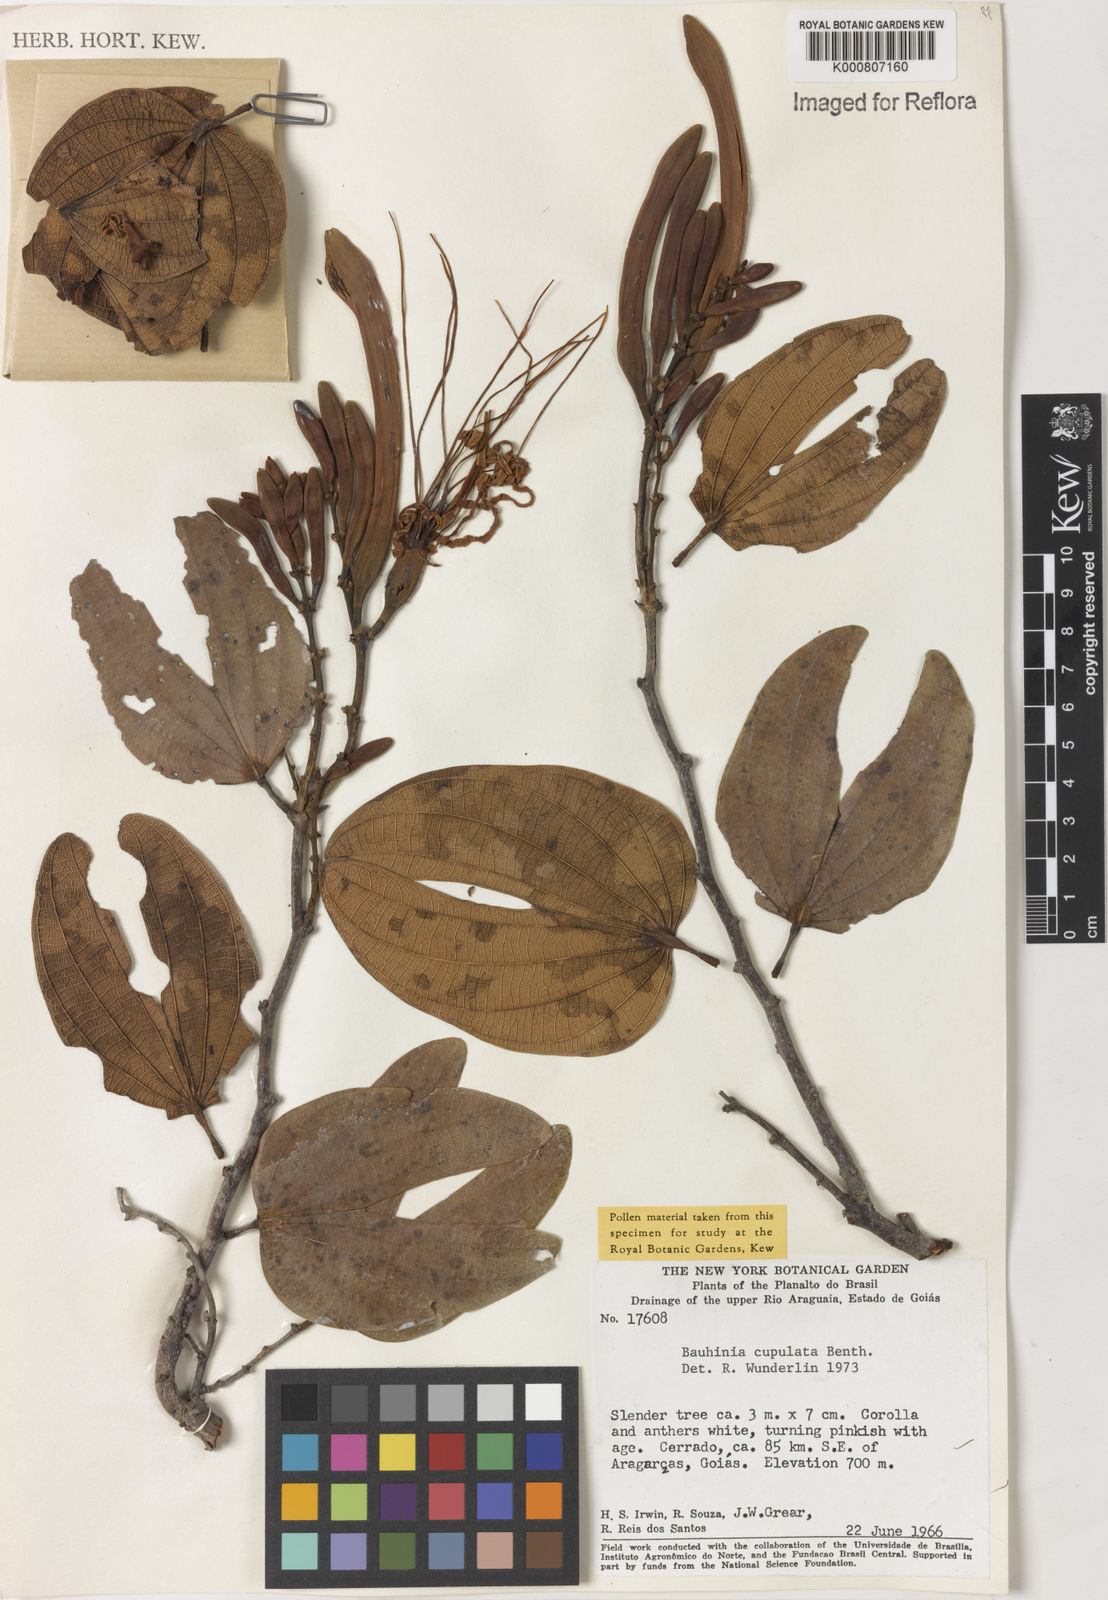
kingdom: Plantae
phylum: Tracheophyta
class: Magnoliopsida
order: Fabales
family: Fabaceae
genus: Bauhinia
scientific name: Bauhinia cupulata
